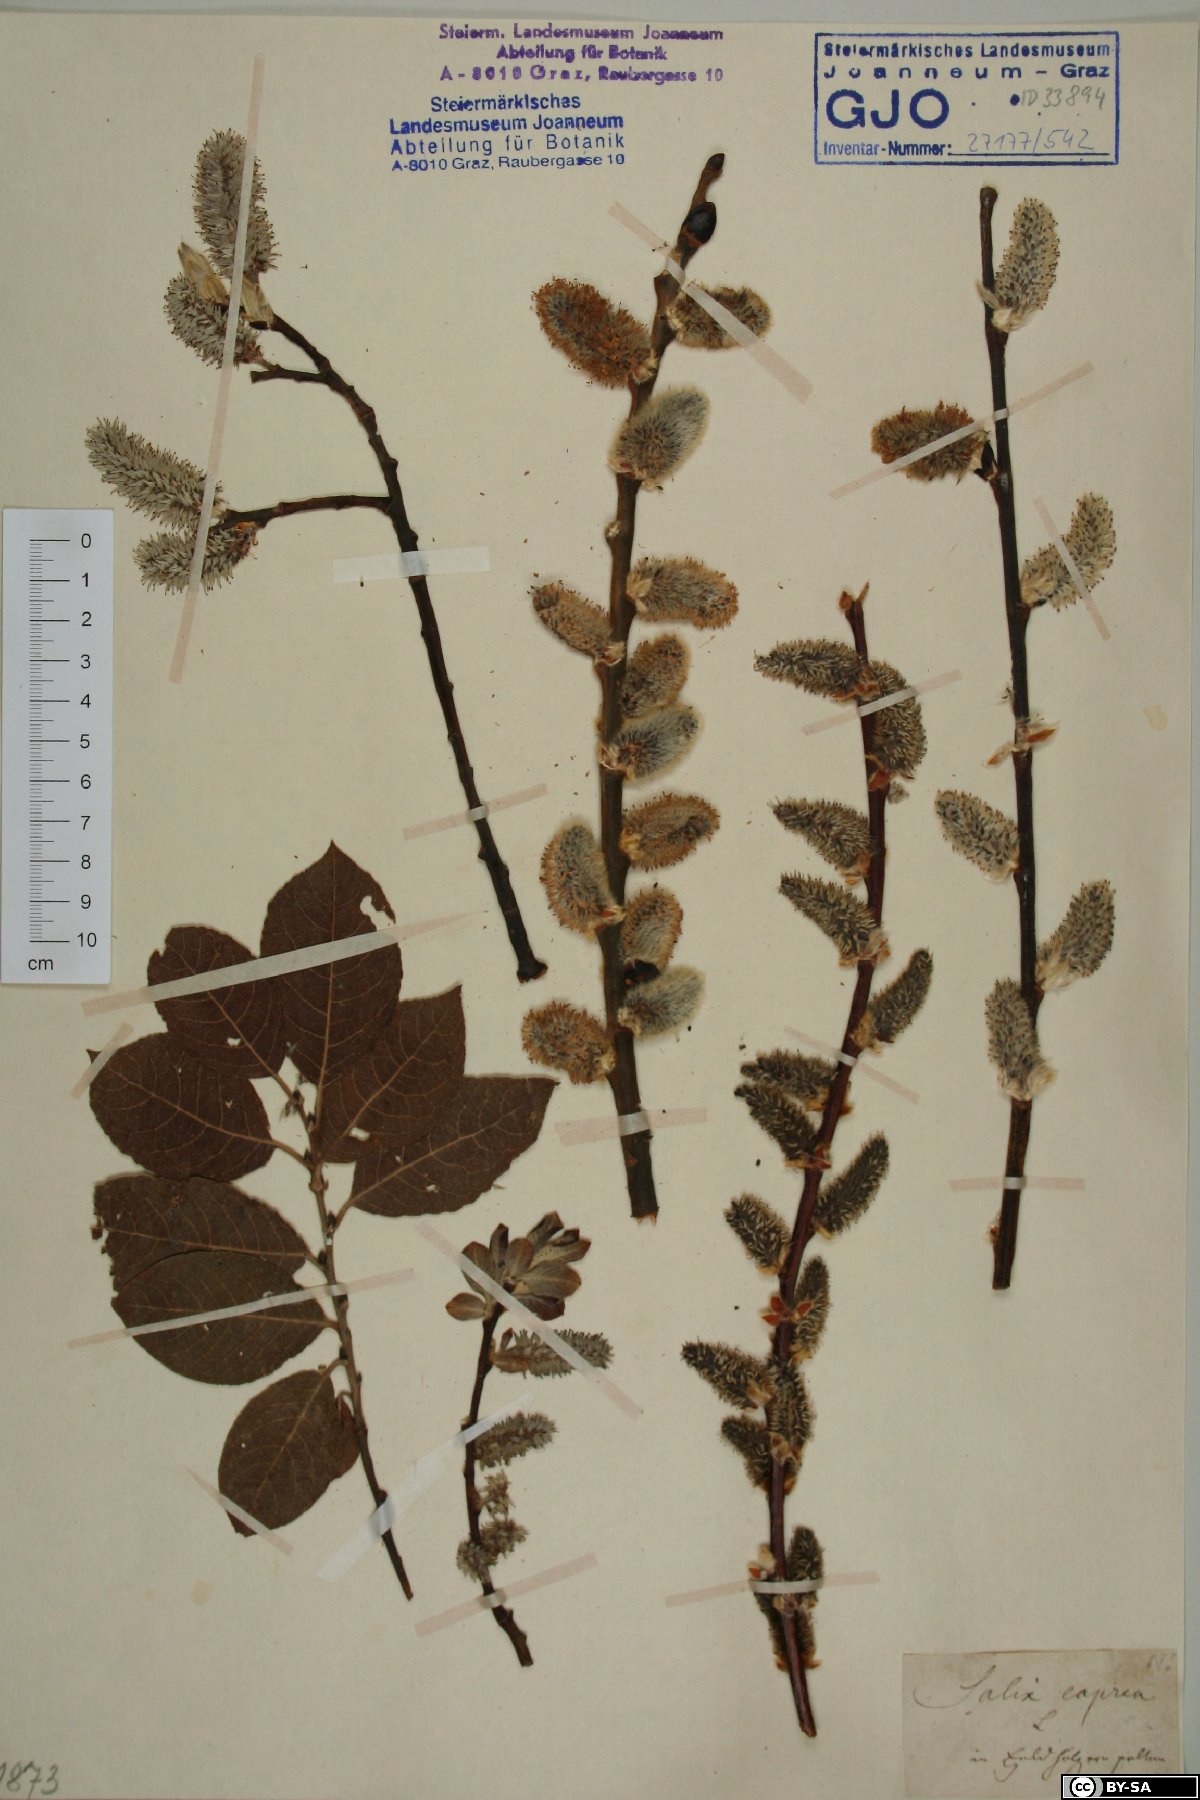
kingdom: Plantae
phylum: Tracheophyta
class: Magnoliopsida
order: Malpighiales
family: Salicaceae
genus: Salix
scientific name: Salix caprea
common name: Goat willow
